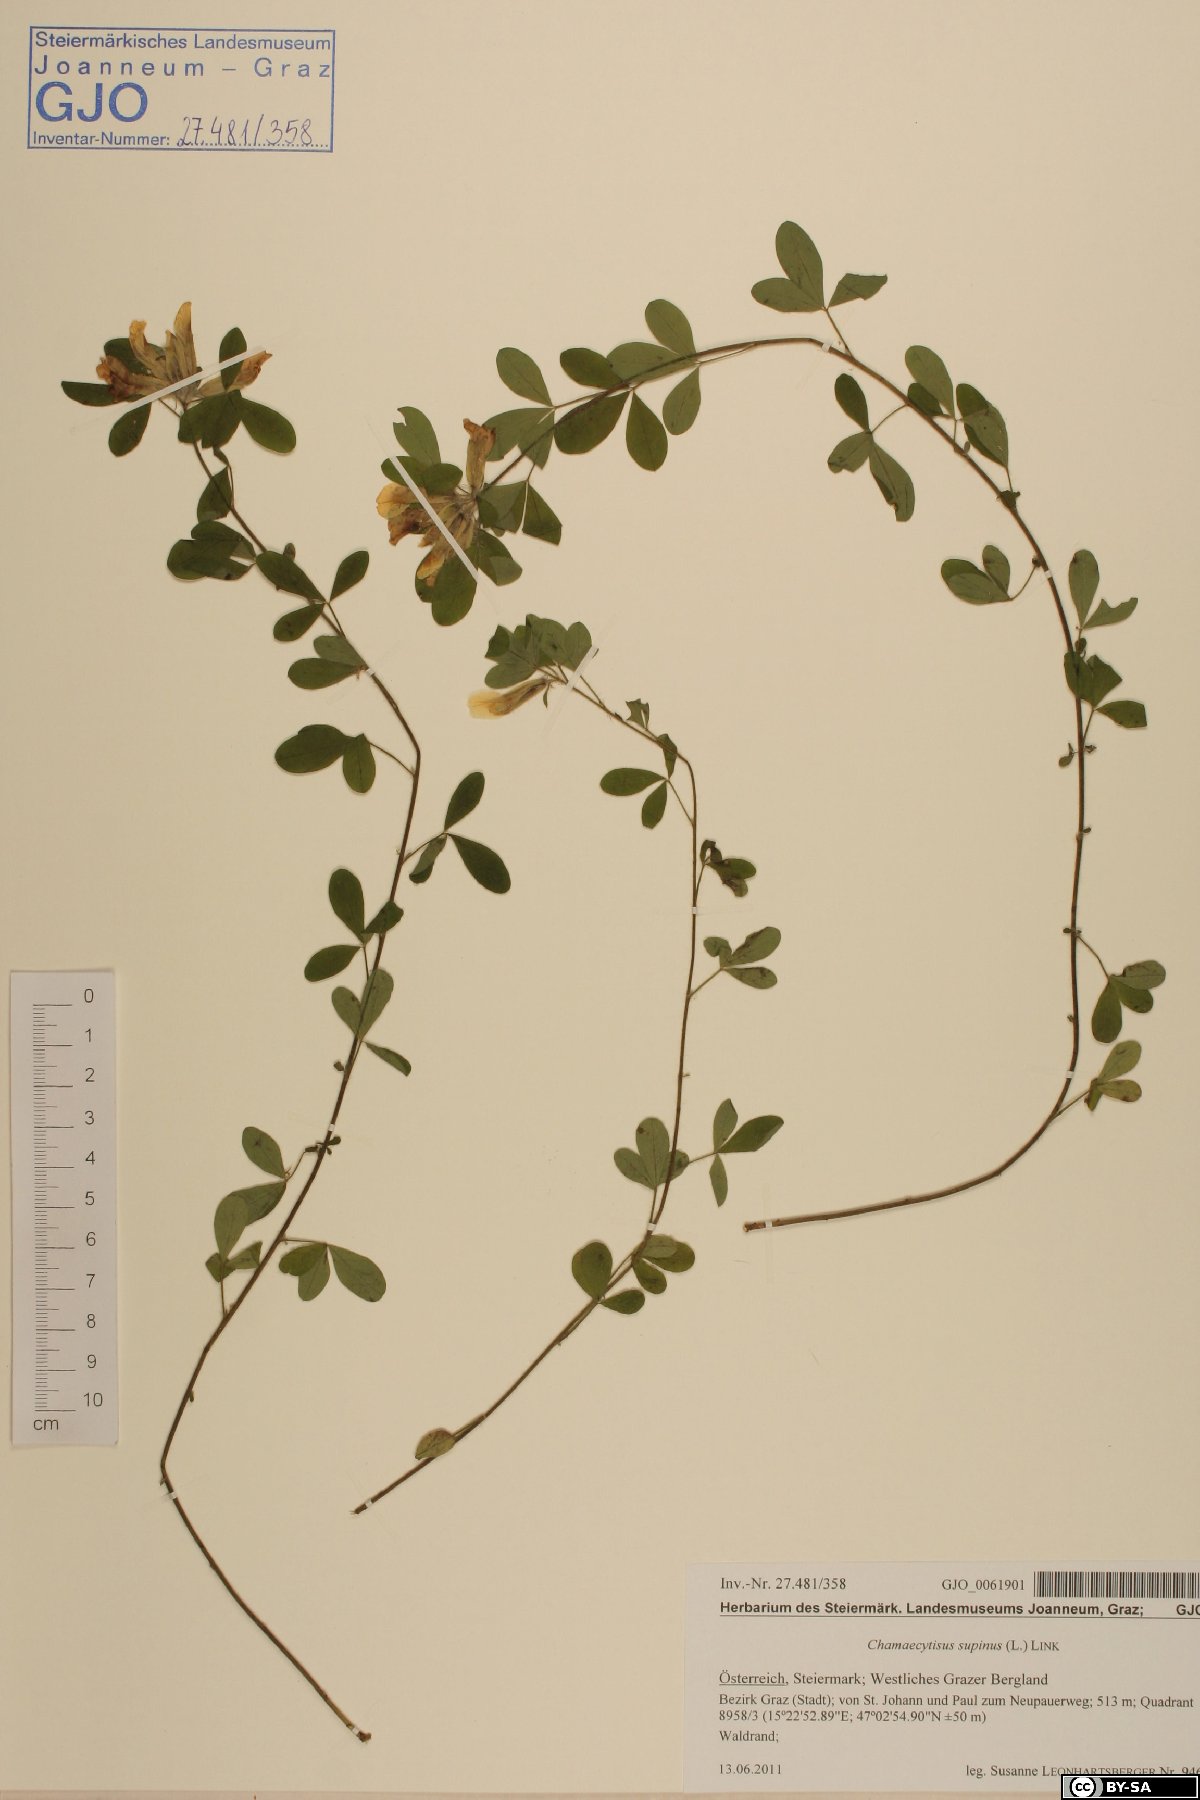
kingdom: Plantae
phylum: Tracheophyta
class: Magnoliopsida
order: Fabales
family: Fabaceae
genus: Chamaecytisus
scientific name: Chamaecytisus supinus
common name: Clustered broom
